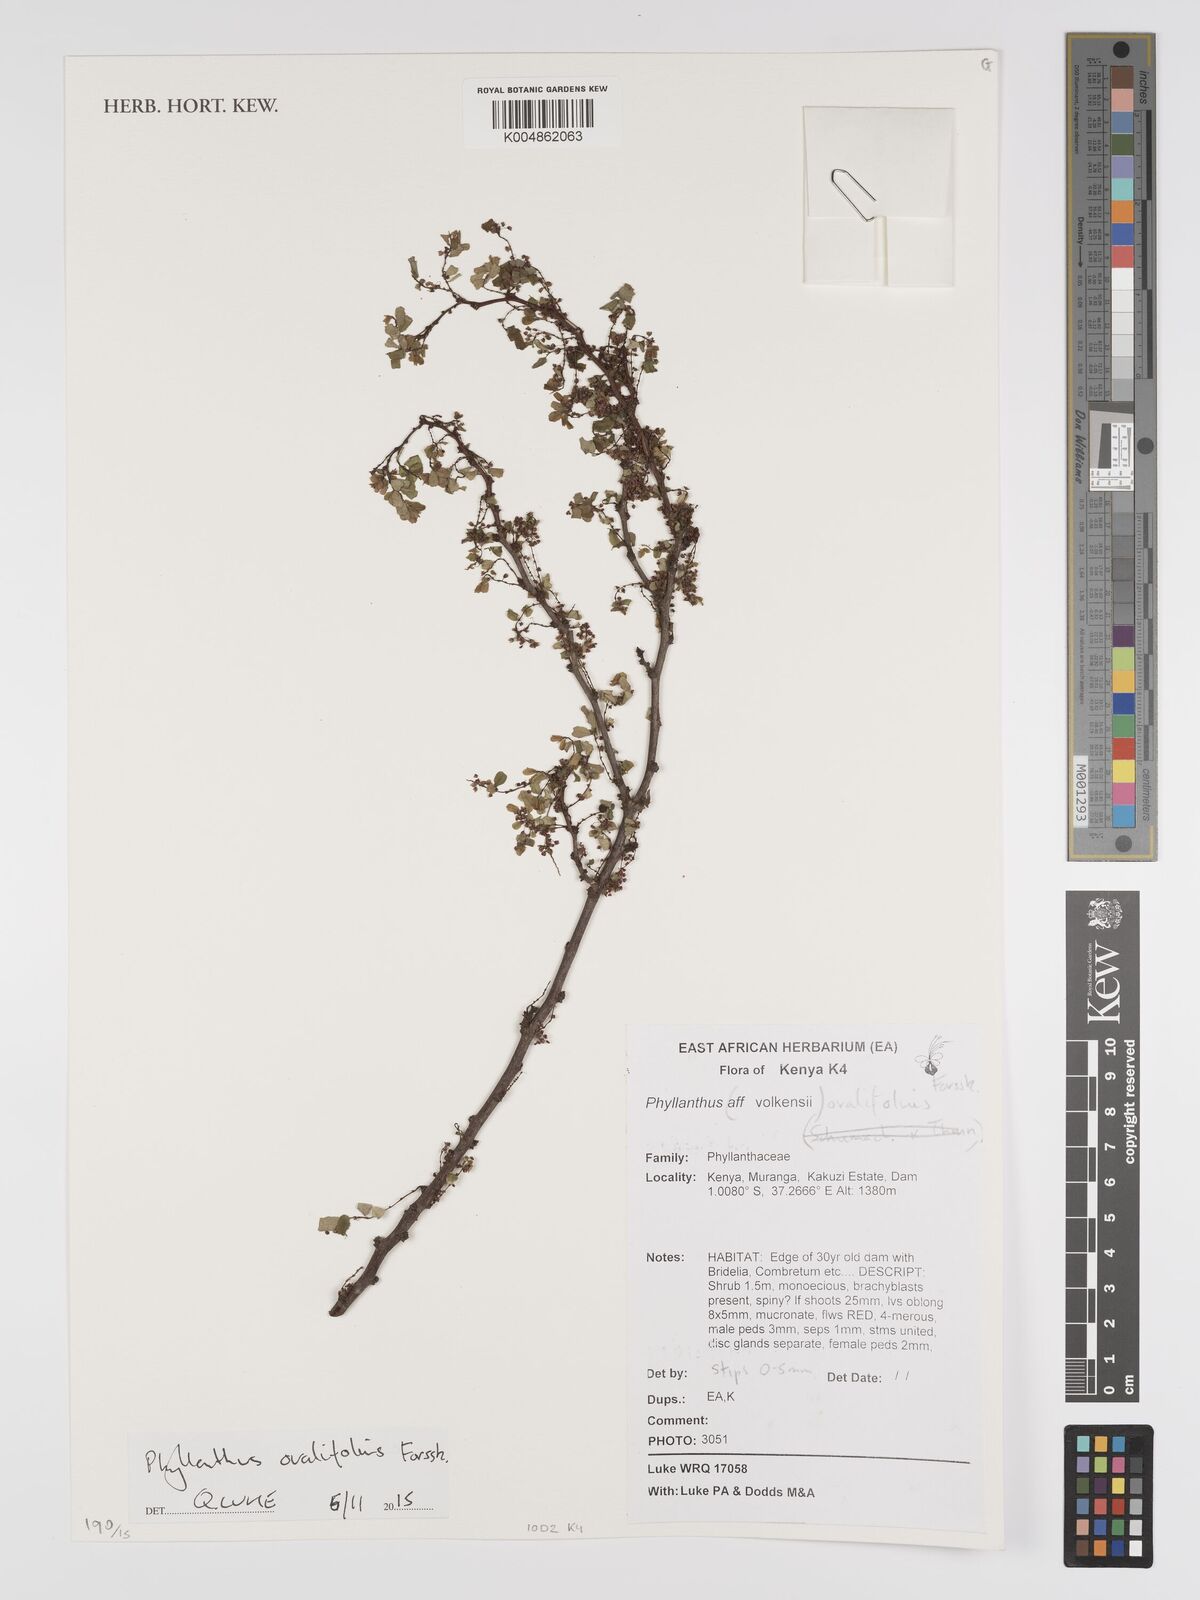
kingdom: Plantae
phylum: Tracheophyta
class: Magnoliopsida
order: Malpighiales
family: Phyllanthaceae
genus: Phyllanthus
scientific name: Phyllanthus ovalifolius
